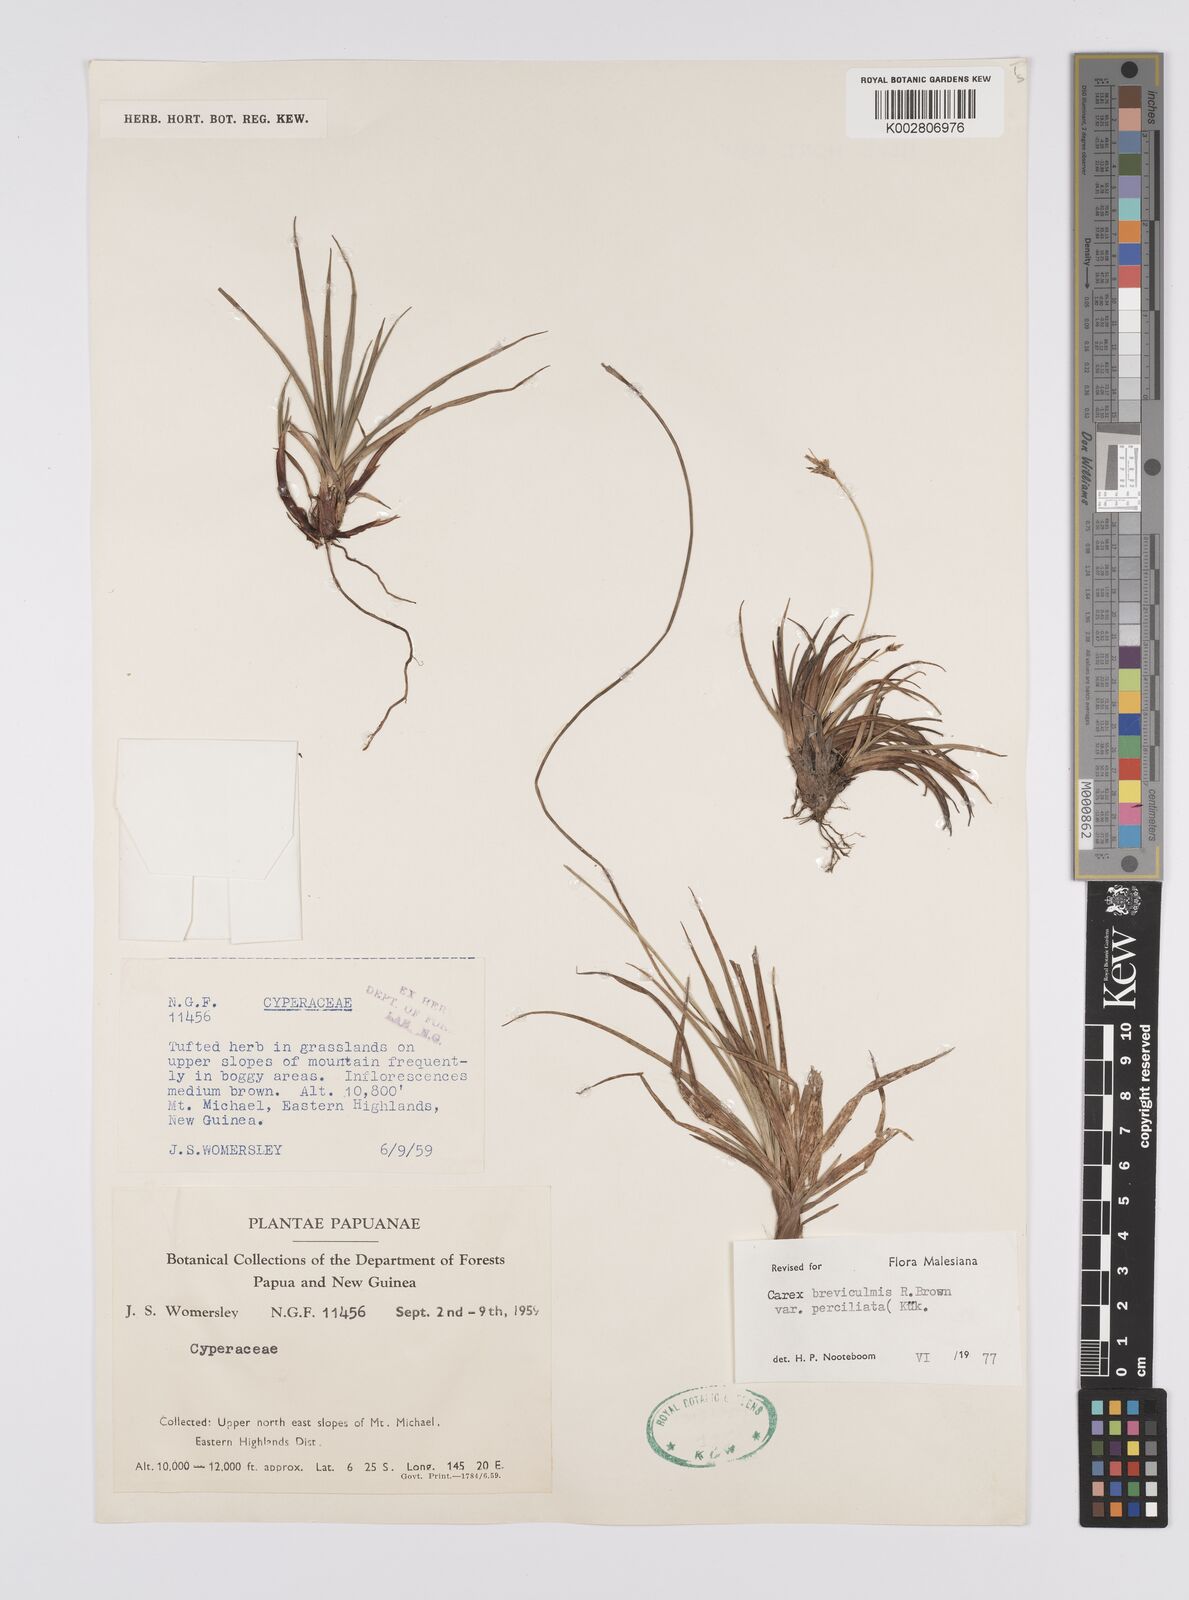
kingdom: Plantae
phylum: Tracheophyta
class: Liliopsida
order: Poales
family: Cyperaceae
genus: Carex
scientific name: Carex breviculmis
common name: Asian shortstem sedge
